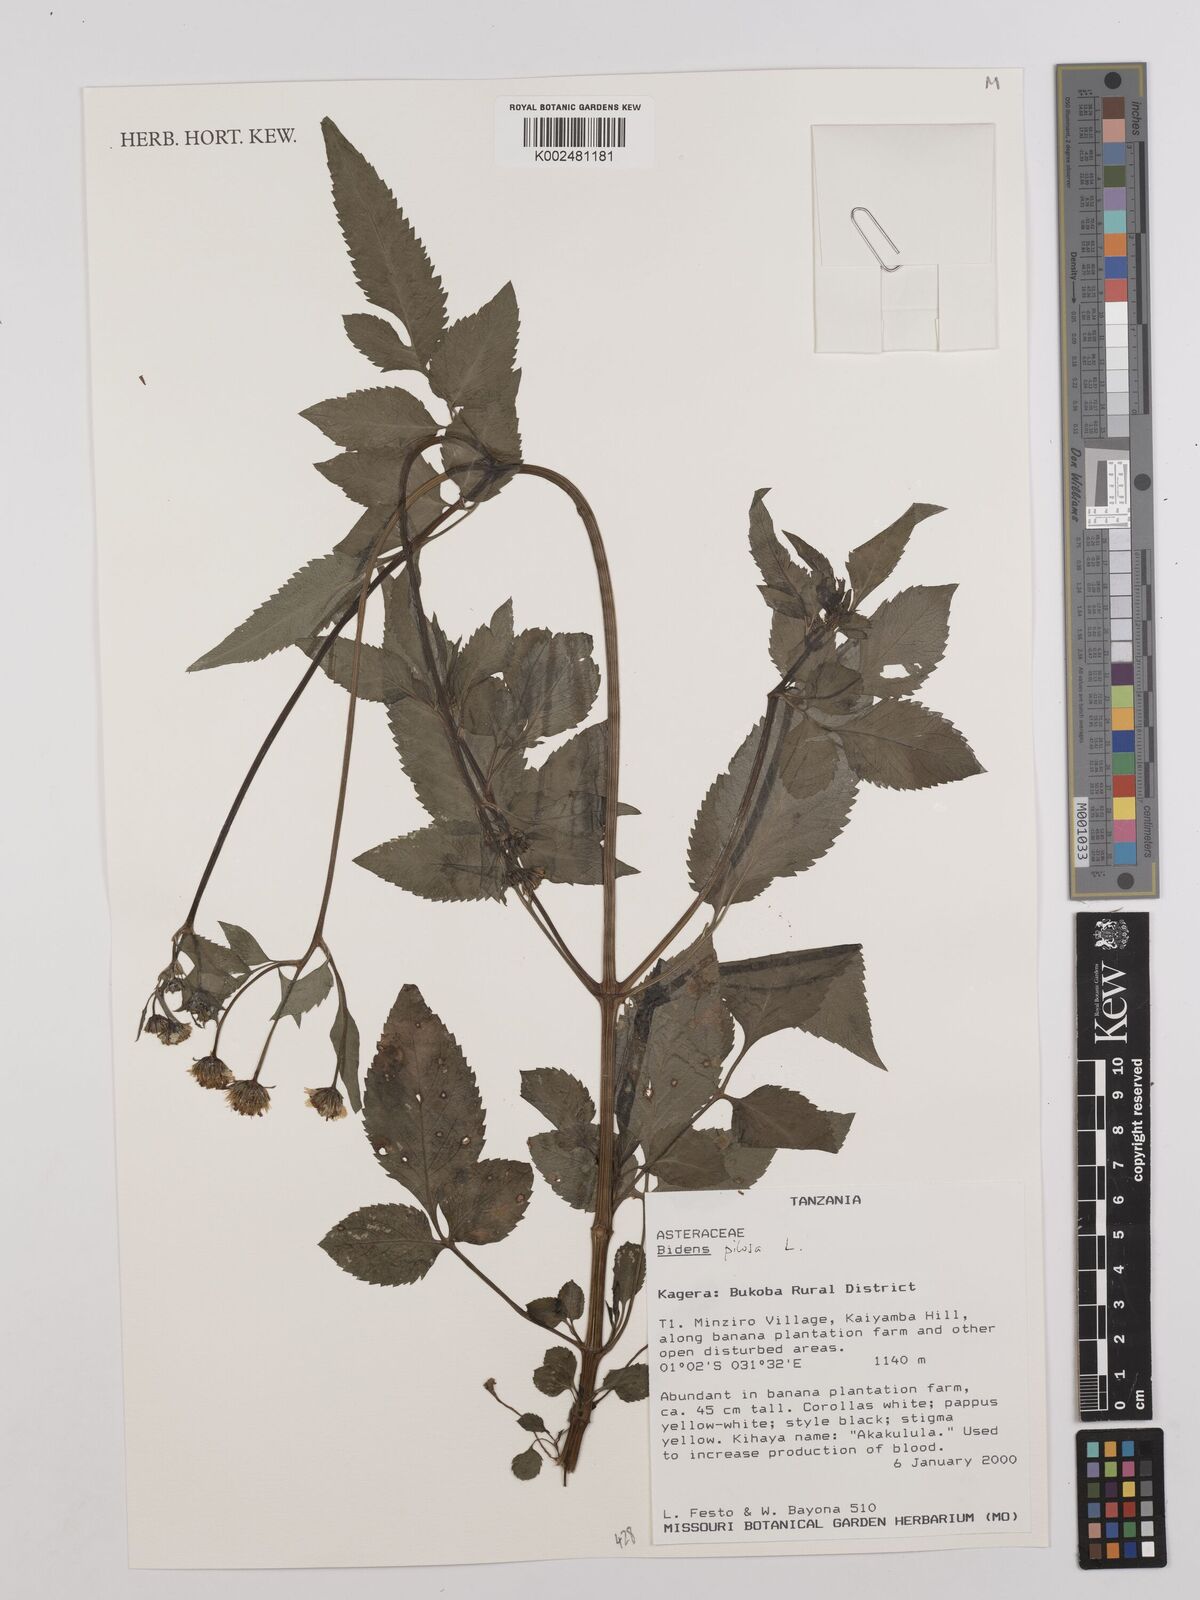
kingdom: Plantae
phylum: Tracheophyta
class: Magnoliopsida
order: Asterales
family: Asteraceae
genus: Bidens
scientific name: Bidens pilosa
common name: Black-jack
